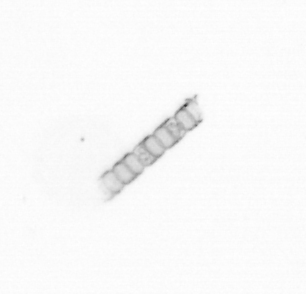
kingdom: Chromista
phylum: Ochrophyta
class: Bacillariophyceae
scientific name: Bacillariophyceae
